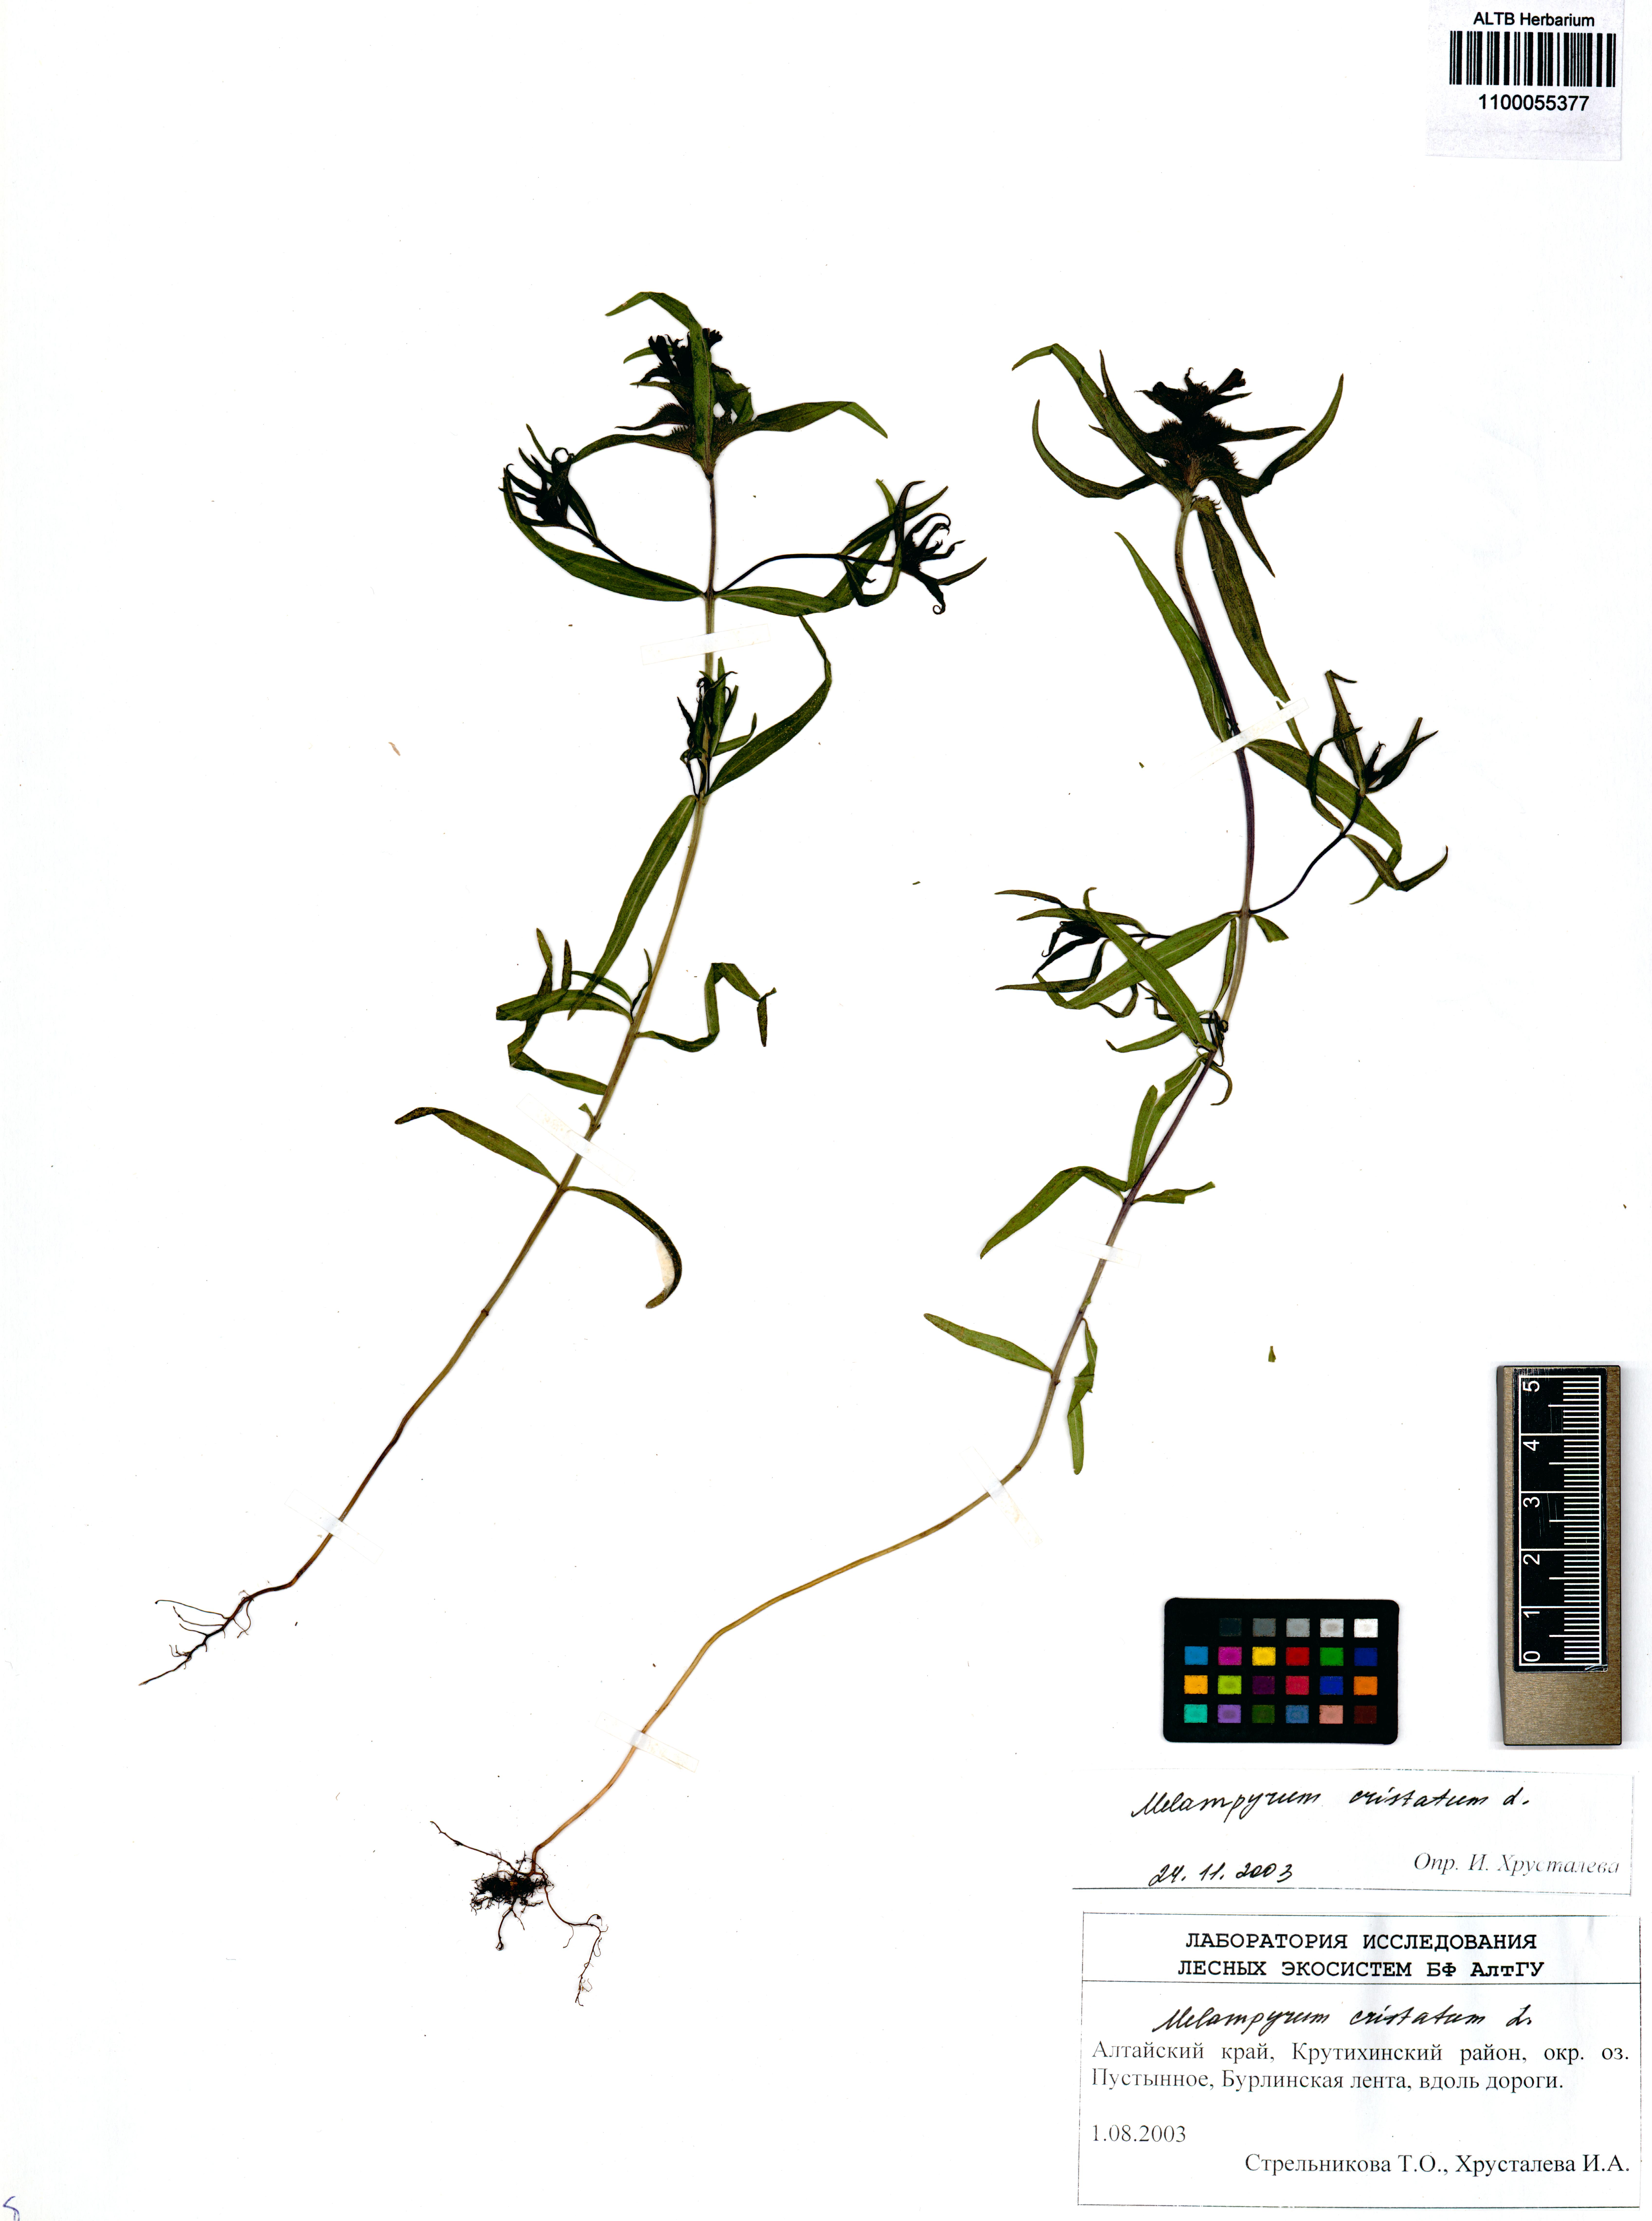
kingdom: Plantae
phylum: Tracheophyta
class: Magnoliopsida
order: Lamiales
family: Orobanchaceae
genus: Melampyrum
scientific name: Melampyrum cristatum
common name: Crested cow-wheat
